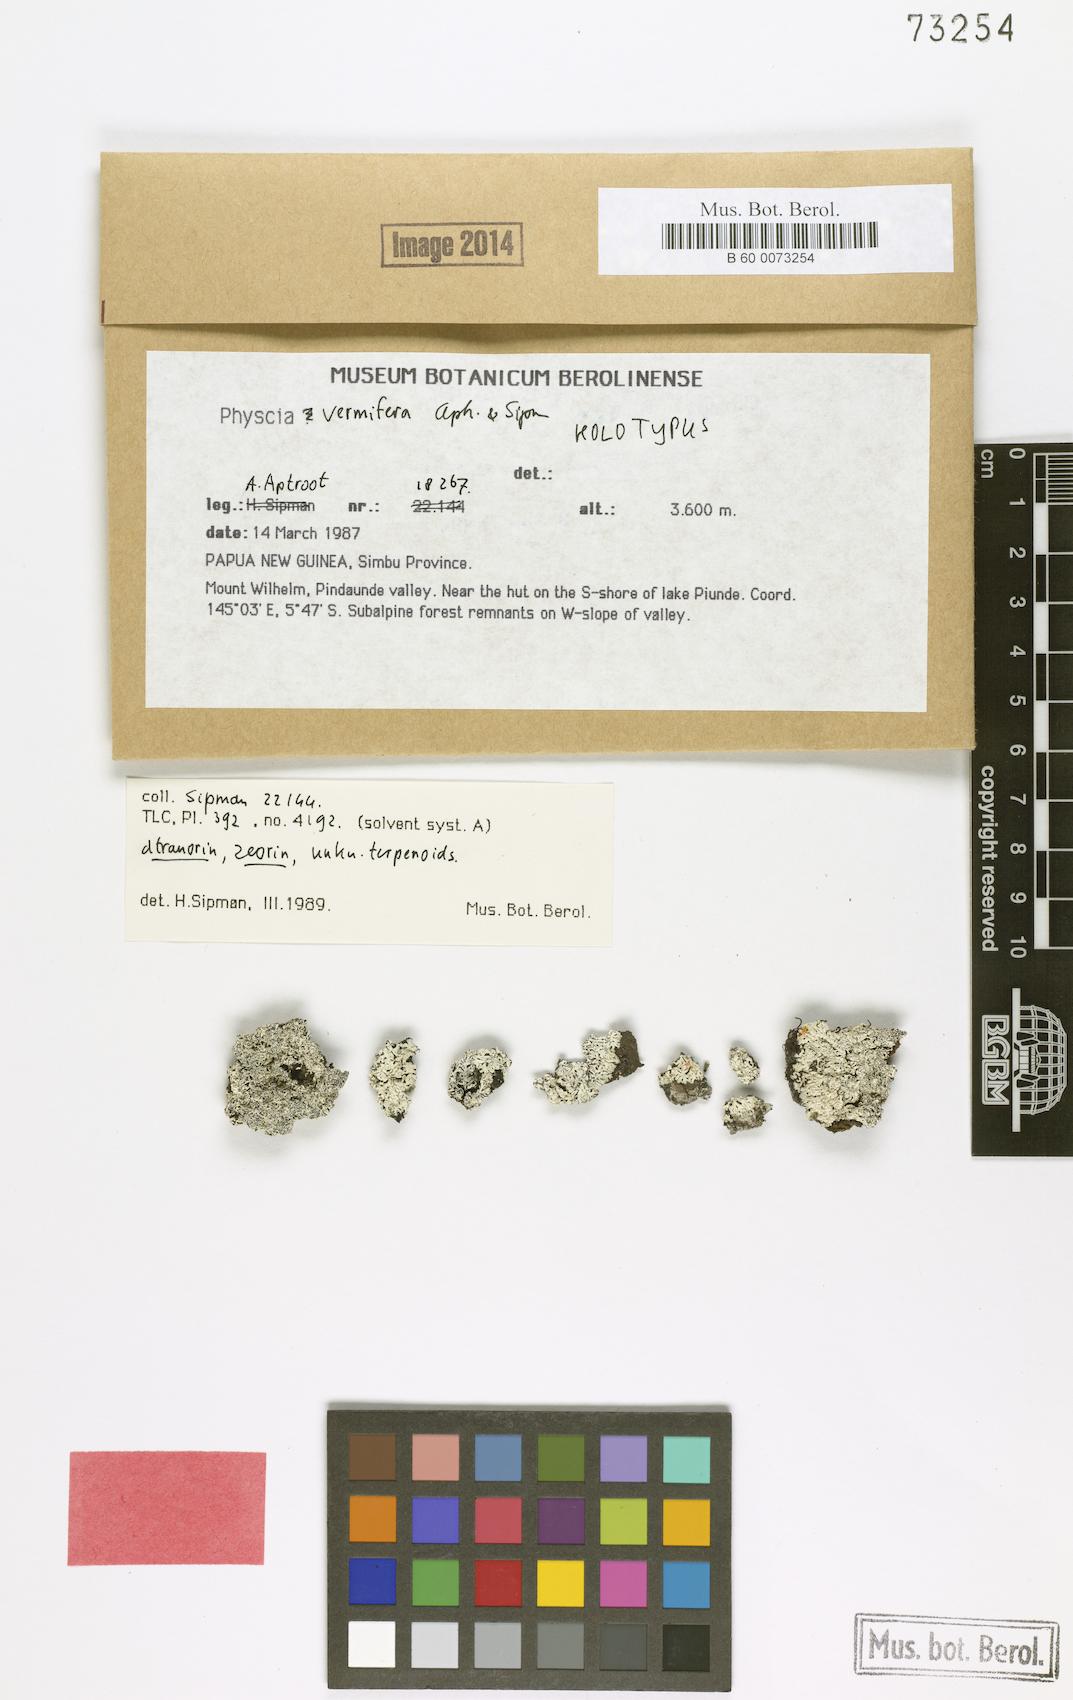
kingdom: Fungi
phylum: Ascomycota
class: Lecanoromycetes
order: Caliciales
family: Physciaceae
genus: Physcia
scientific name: Physcia
